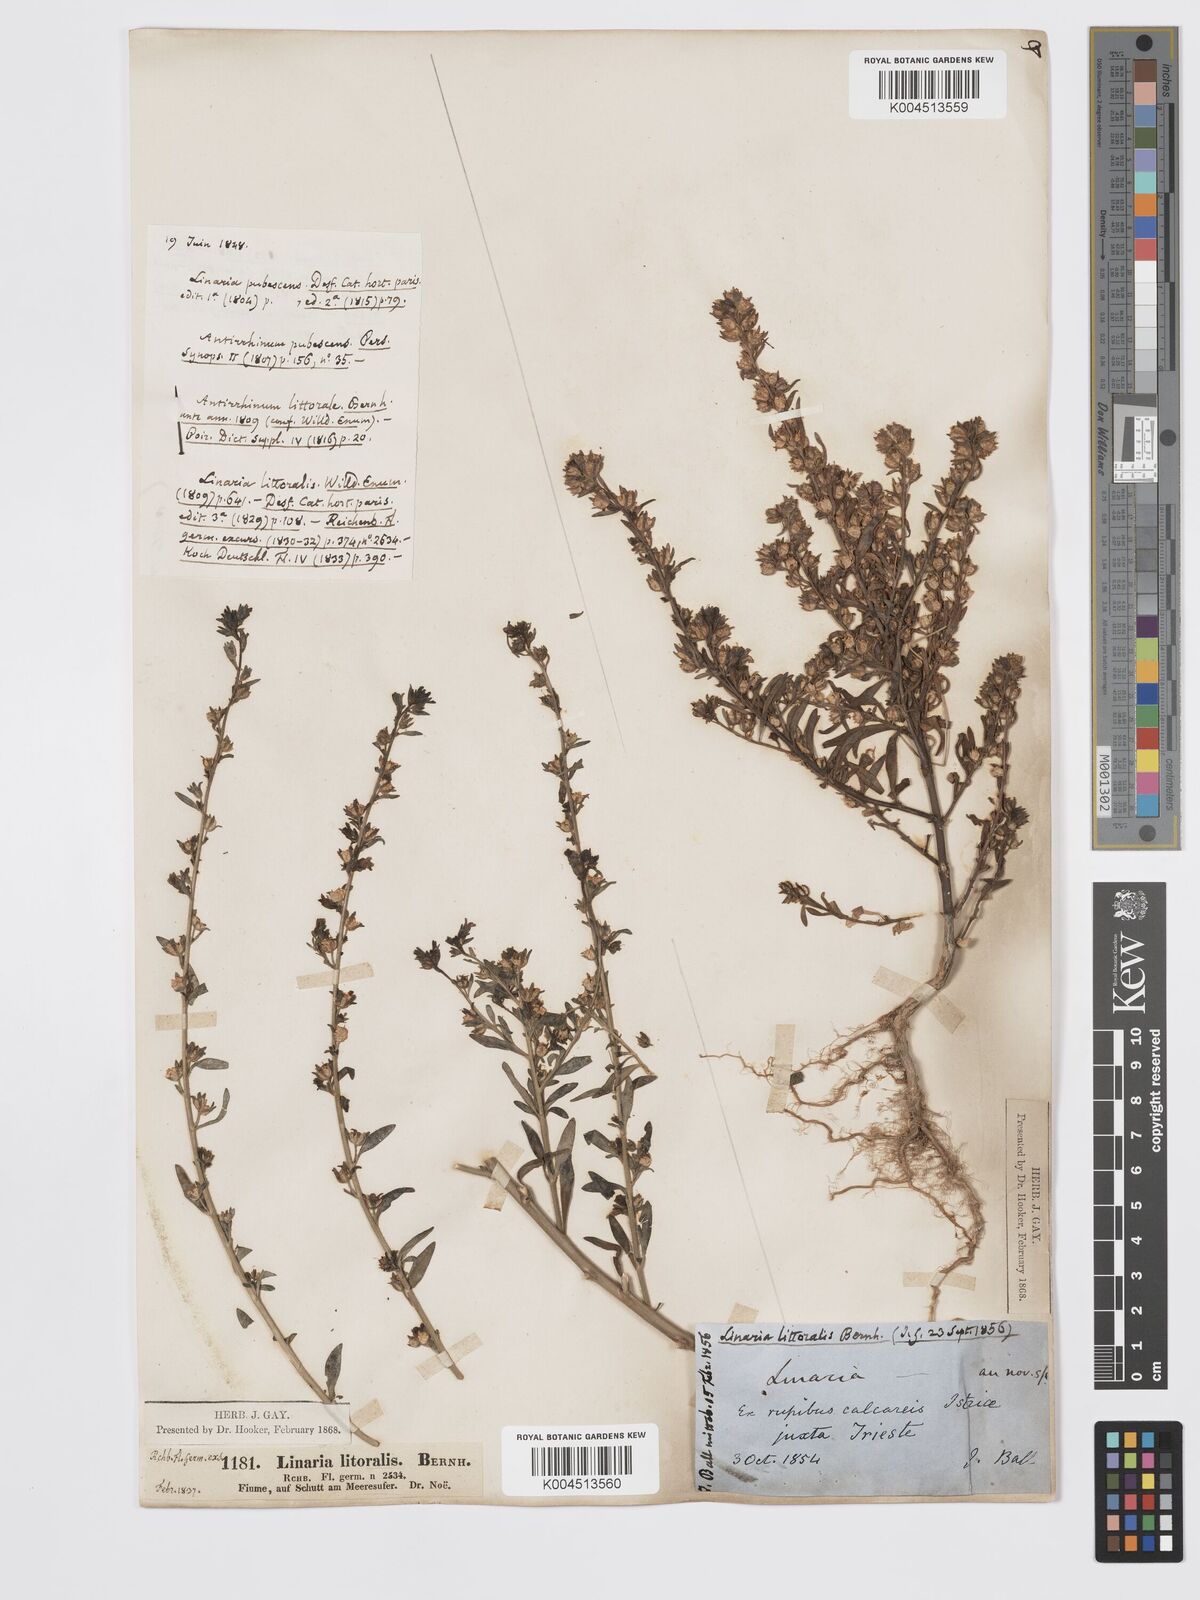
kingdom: Plantae
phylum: Tracheophyta
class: Magnoliopsida
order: Lamiales
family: Plantaginaceae
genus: Chaenorhinum
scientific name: Chaenorhinum minus
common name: Dwarf snapdragon
